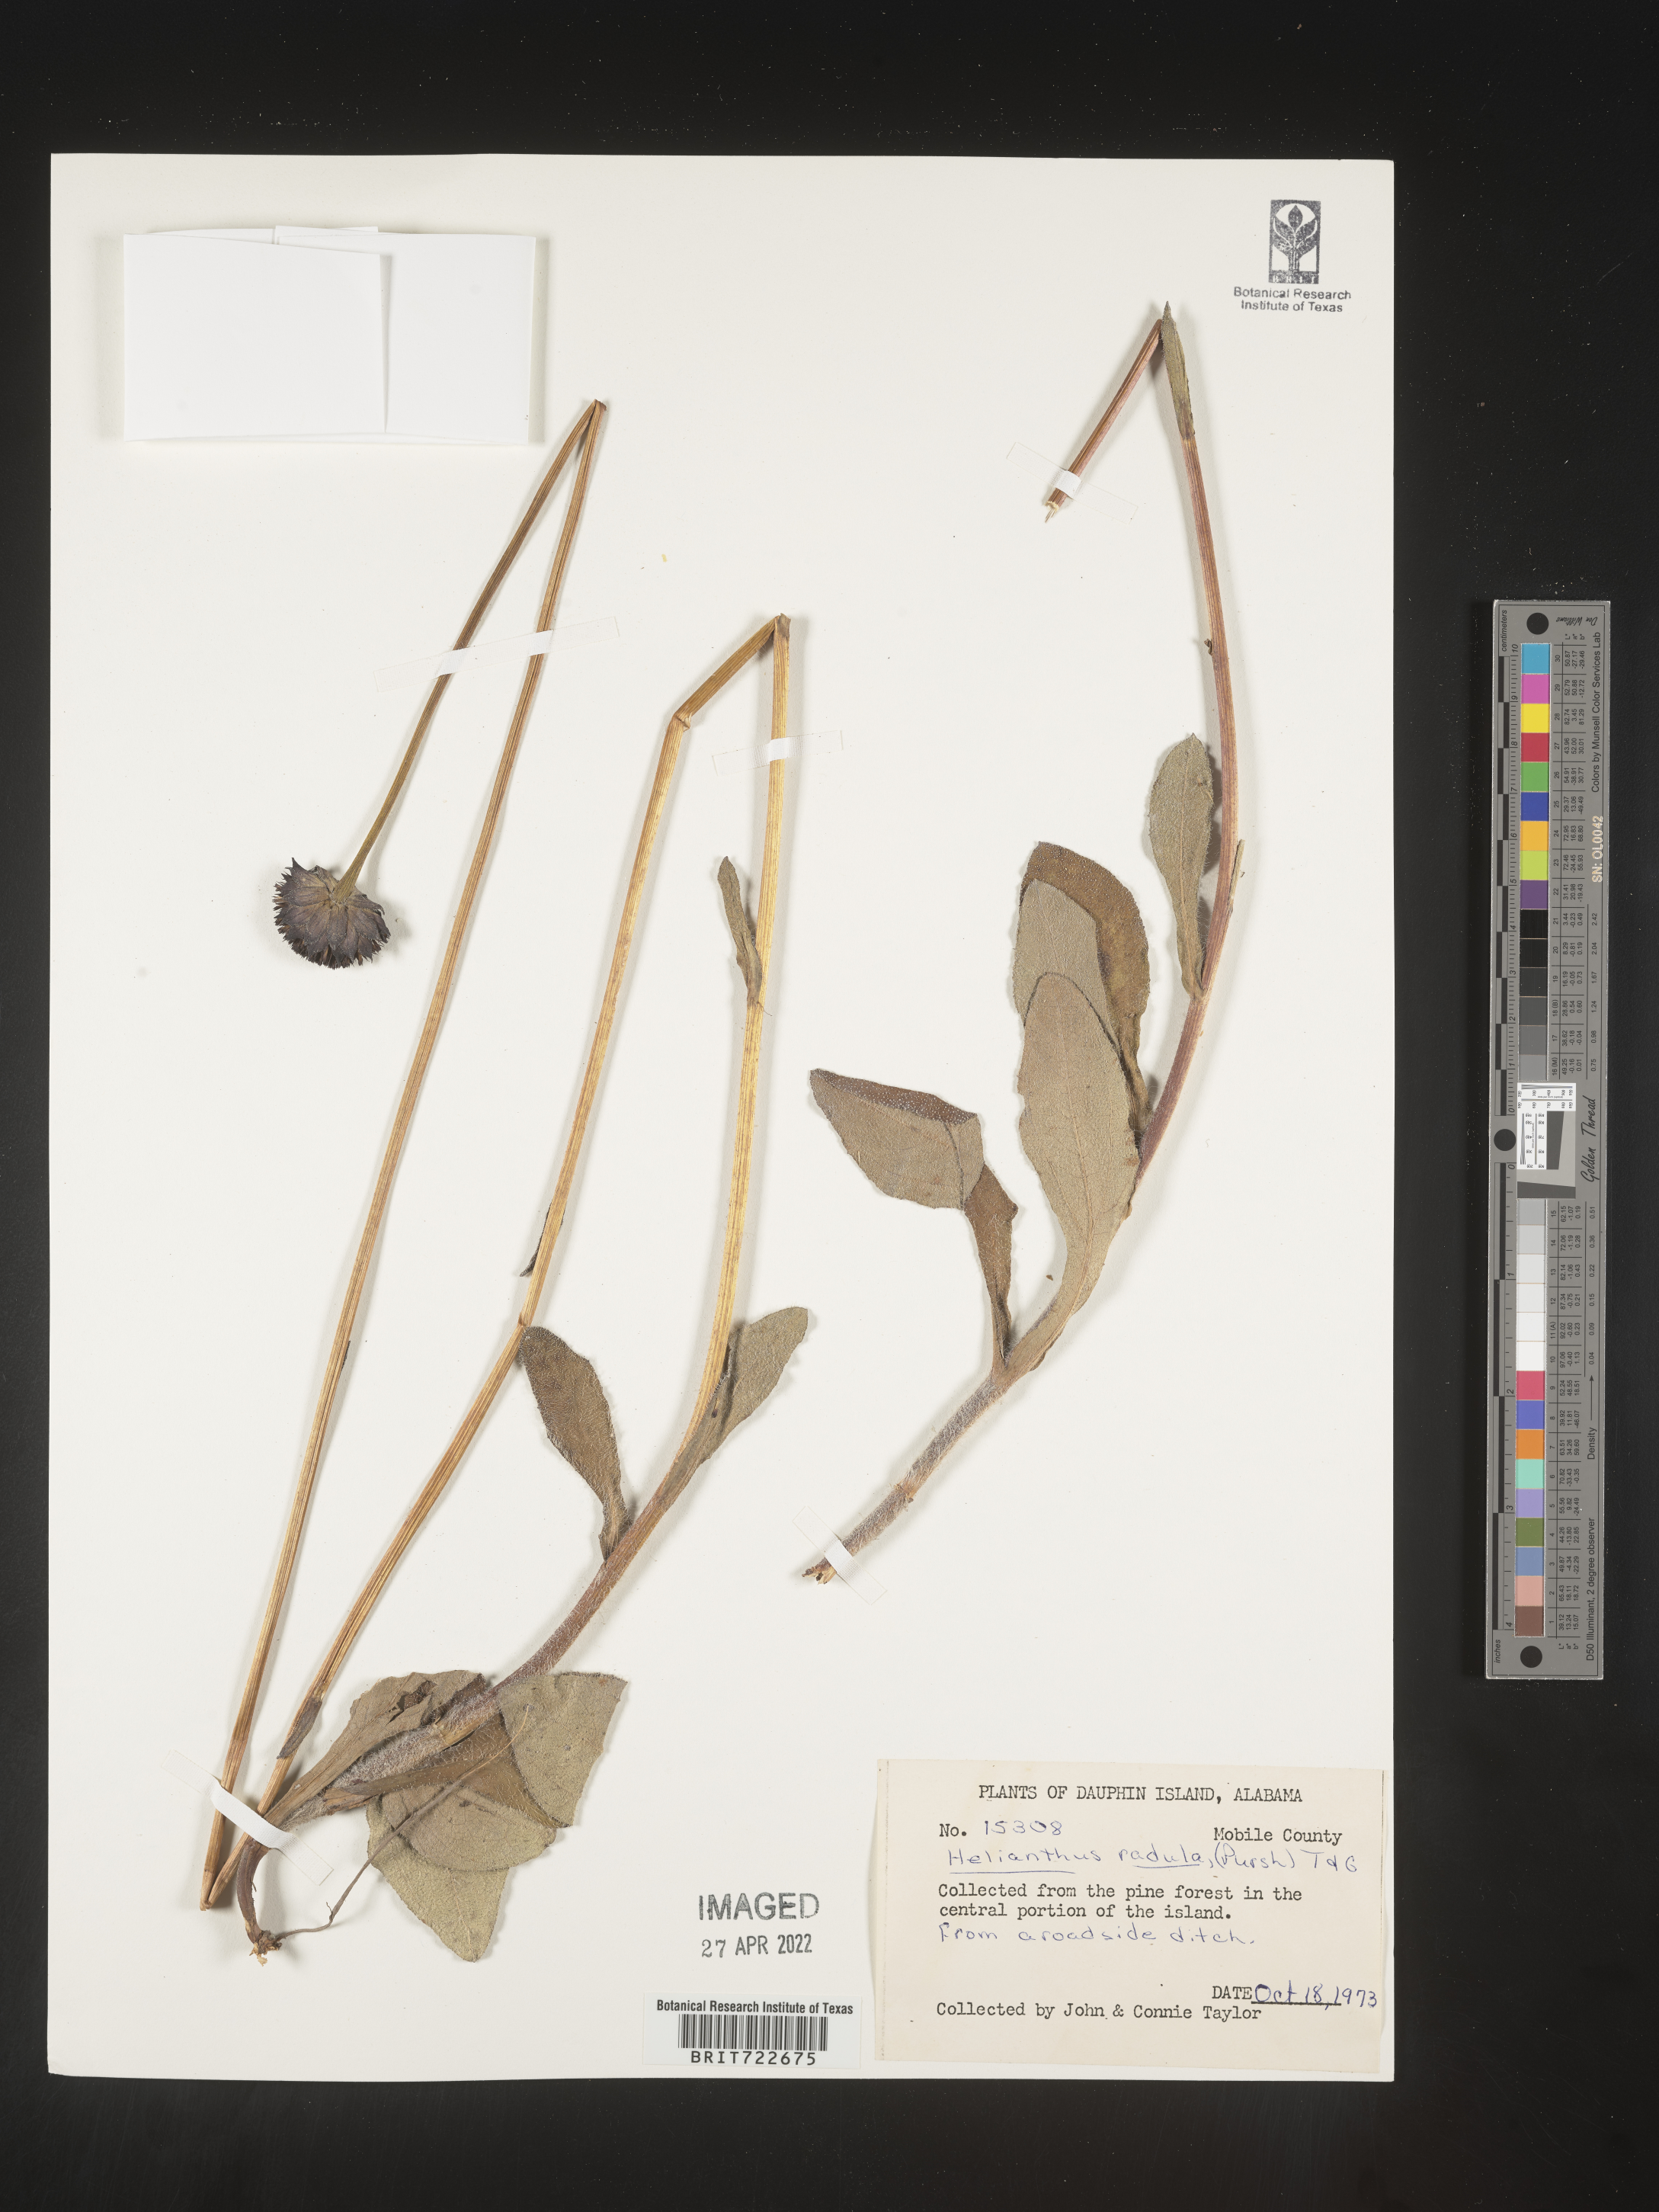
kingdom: Plantae
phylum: Tracheophyta
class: Magnoliopsida
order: Asterales
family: Asteraceae
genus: Helianthus
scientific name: Helianthus radula
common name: Pineland sunflower
